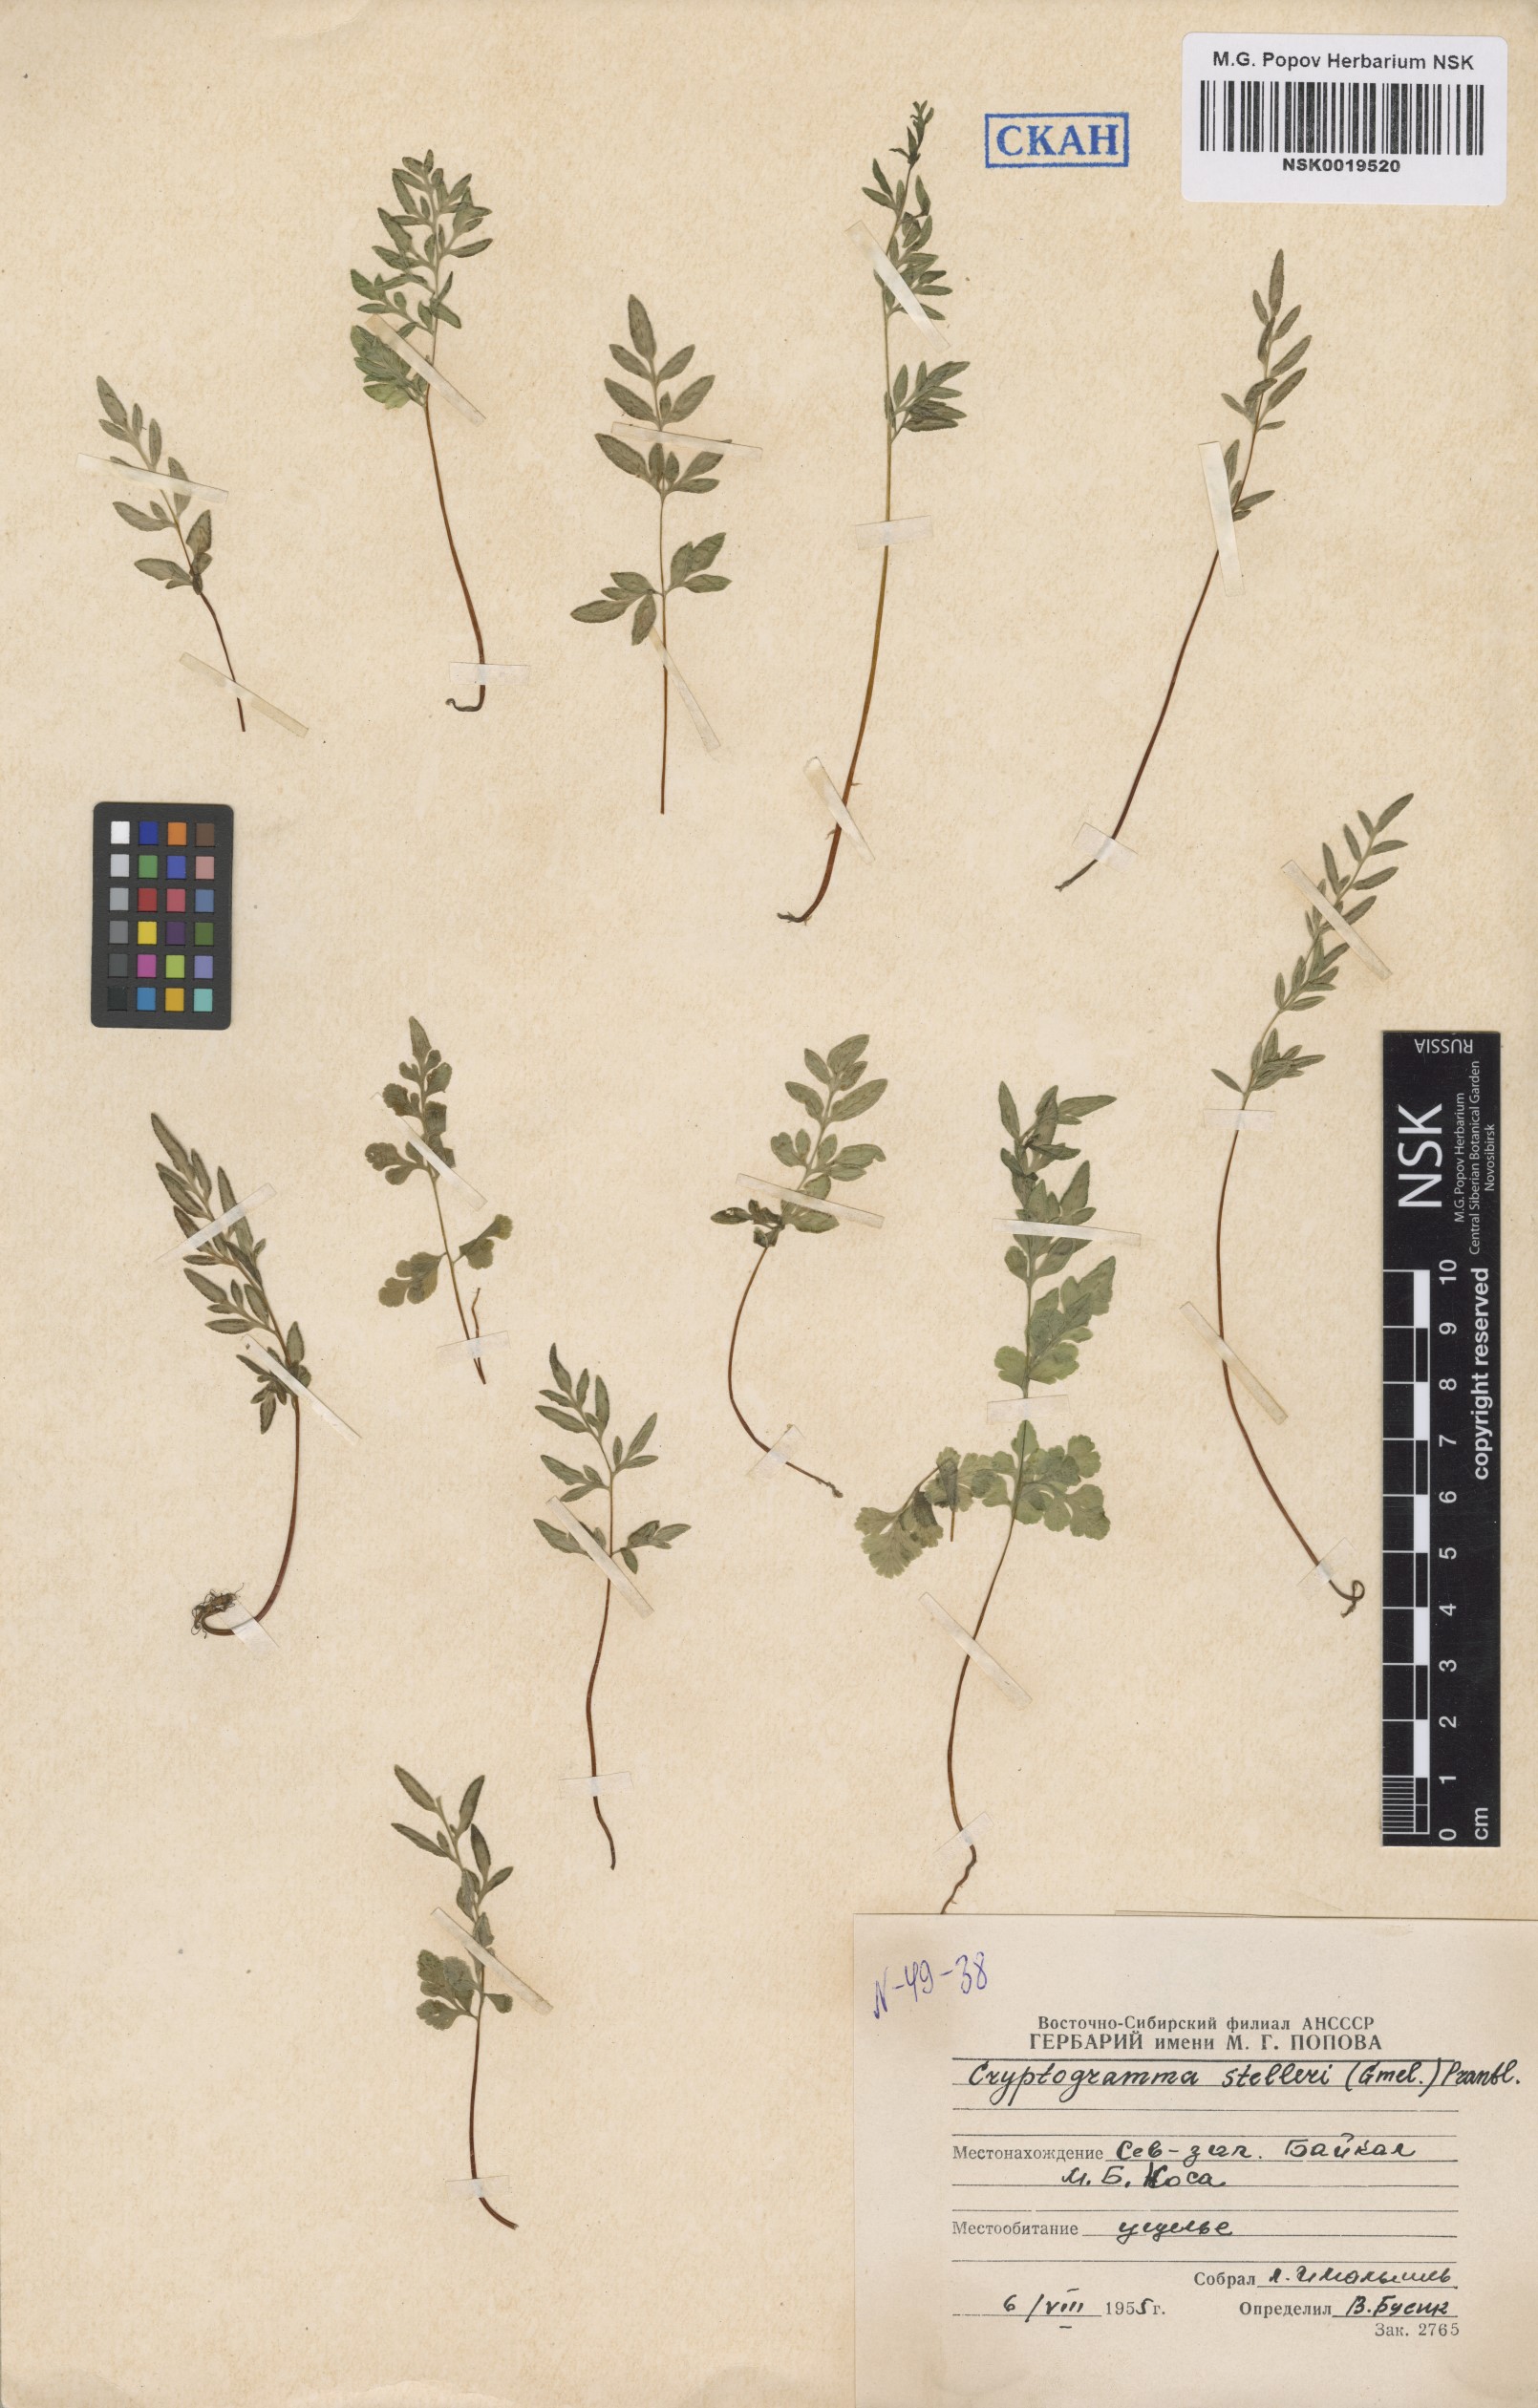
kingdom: Plantae
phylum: Tracheophyta
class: Polypodiopsida
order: Polypodiales
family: Pteridaceae
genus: Cryptogramma
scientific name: Cryptogramma stelleri
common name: Cliff-brake
